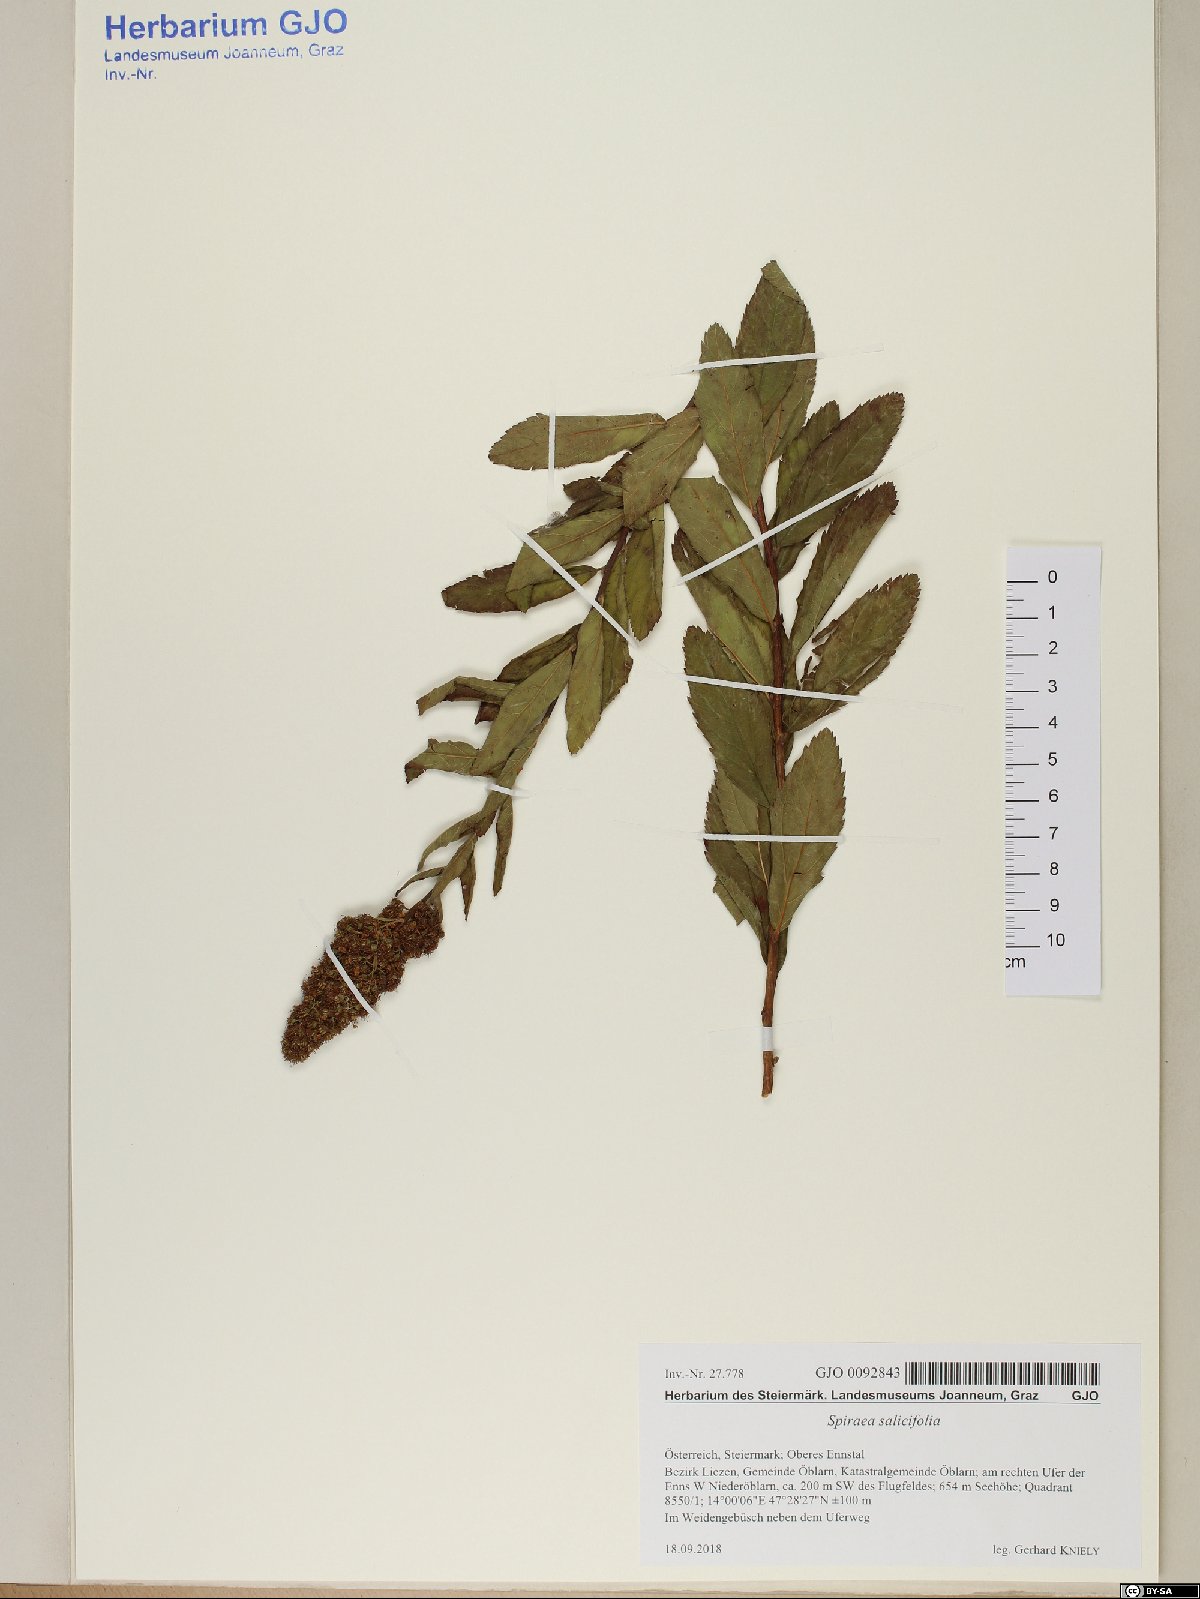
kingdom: Plantae
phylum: Tracheophyta
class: Magnoliopsida
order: Rosales
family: Rosaceae
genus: Spiraea
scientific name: Spiraea salicifolia
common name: Bridewort
